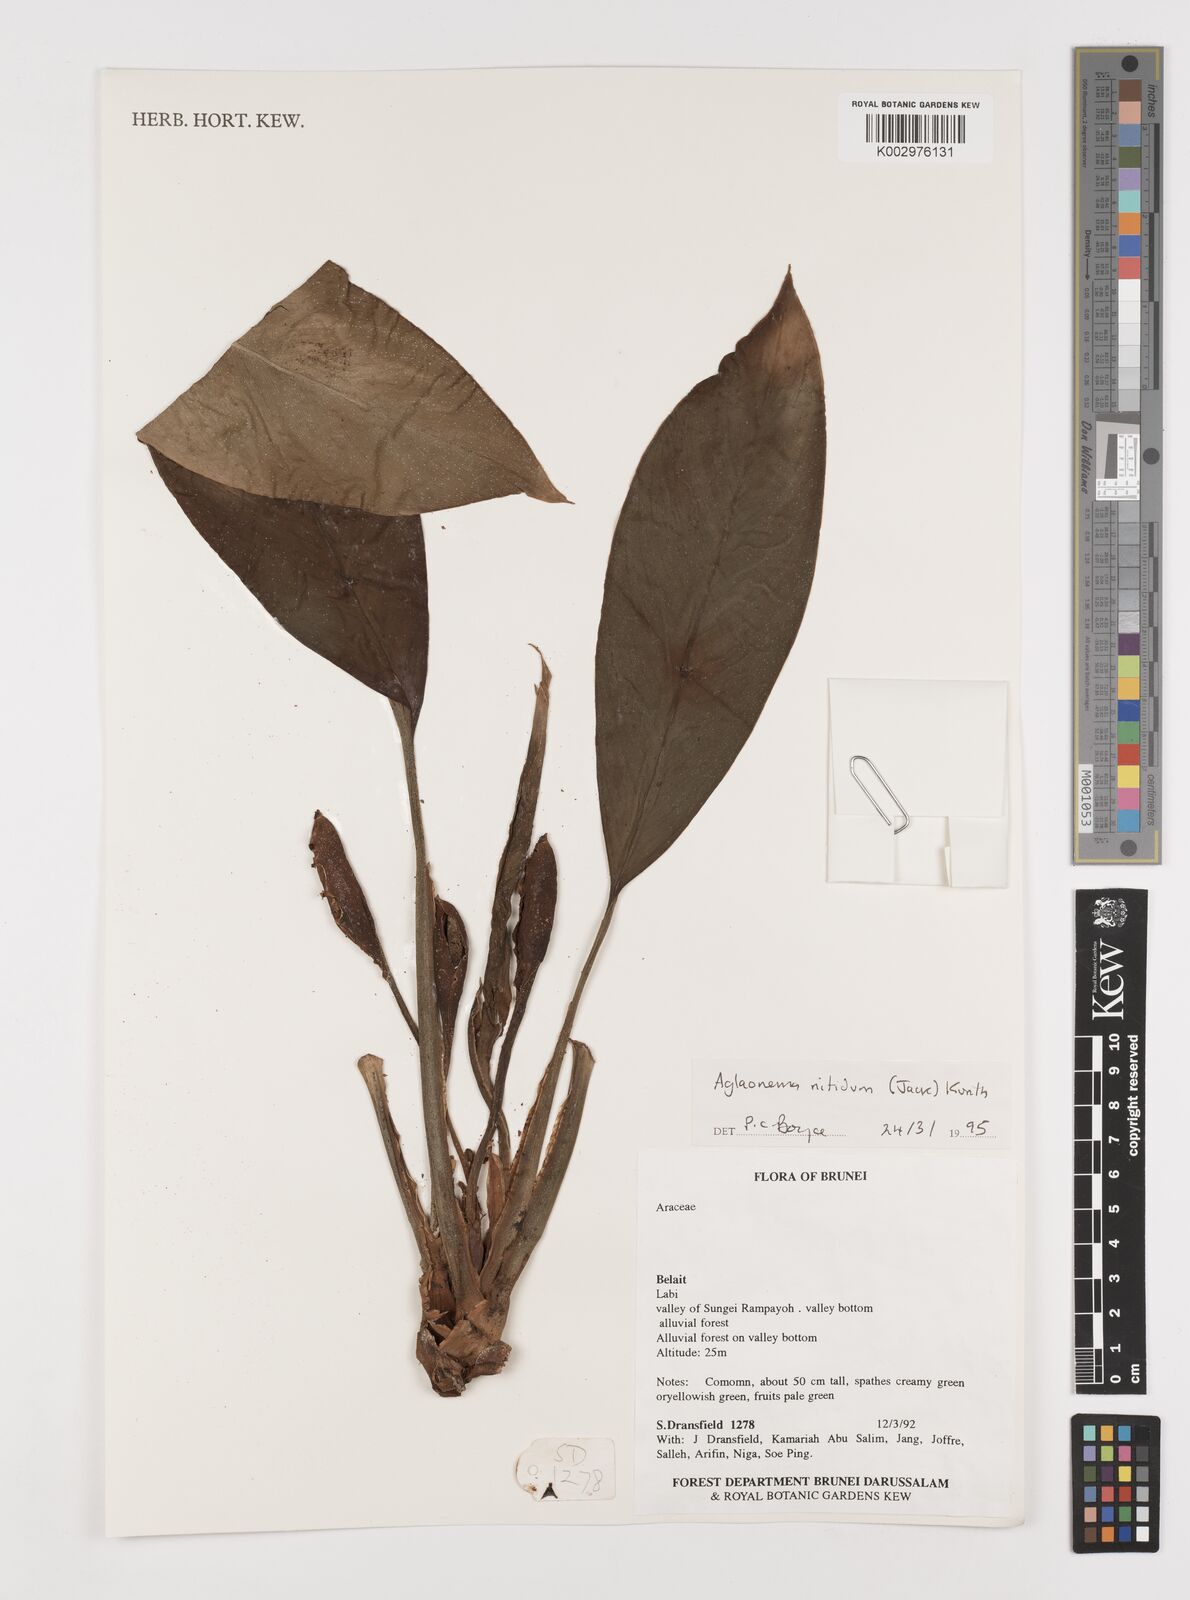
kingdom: Plantae
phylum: Tracheophyta
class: Liliopsida
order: Alismatales
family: Araceae
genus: Aglaonema
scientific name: Aglaonema nitidum
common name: Aglaonema aroid
